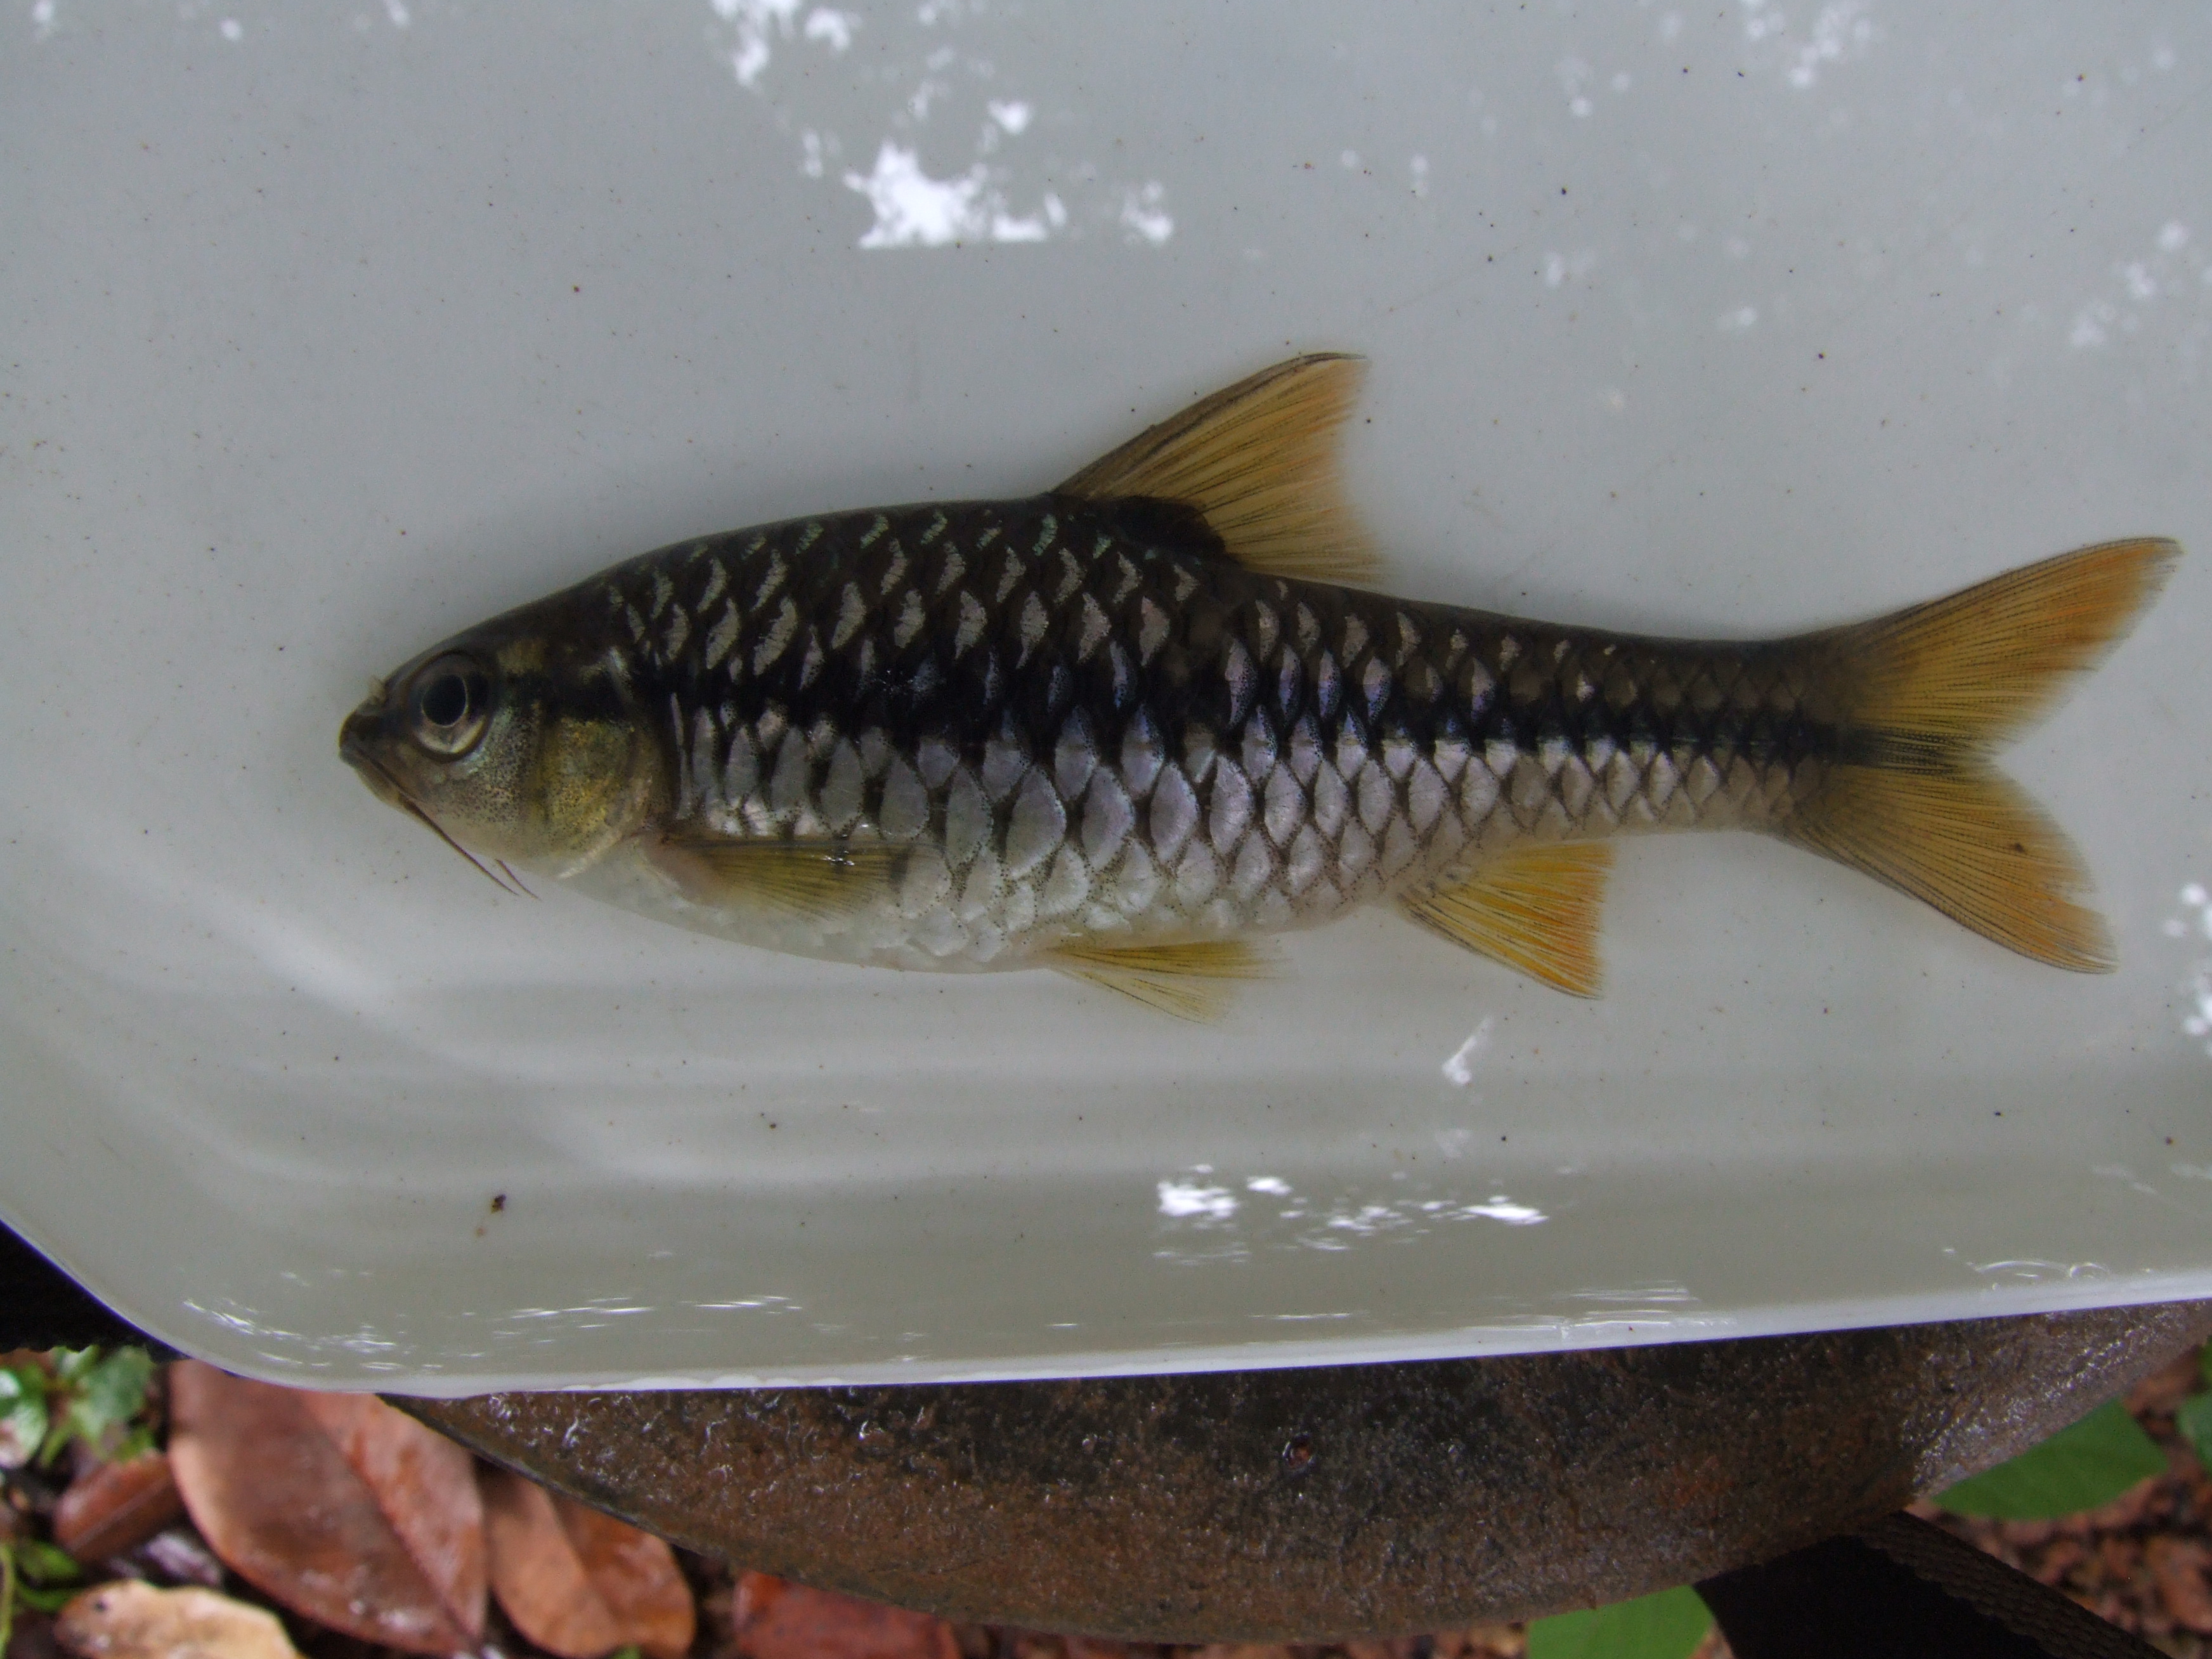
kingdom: Animalia
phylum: Chordata
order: Cypriniformes
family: Cyprinidae
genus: Enteromius
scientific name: Enteromius miolepis
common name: Zigzag barb
